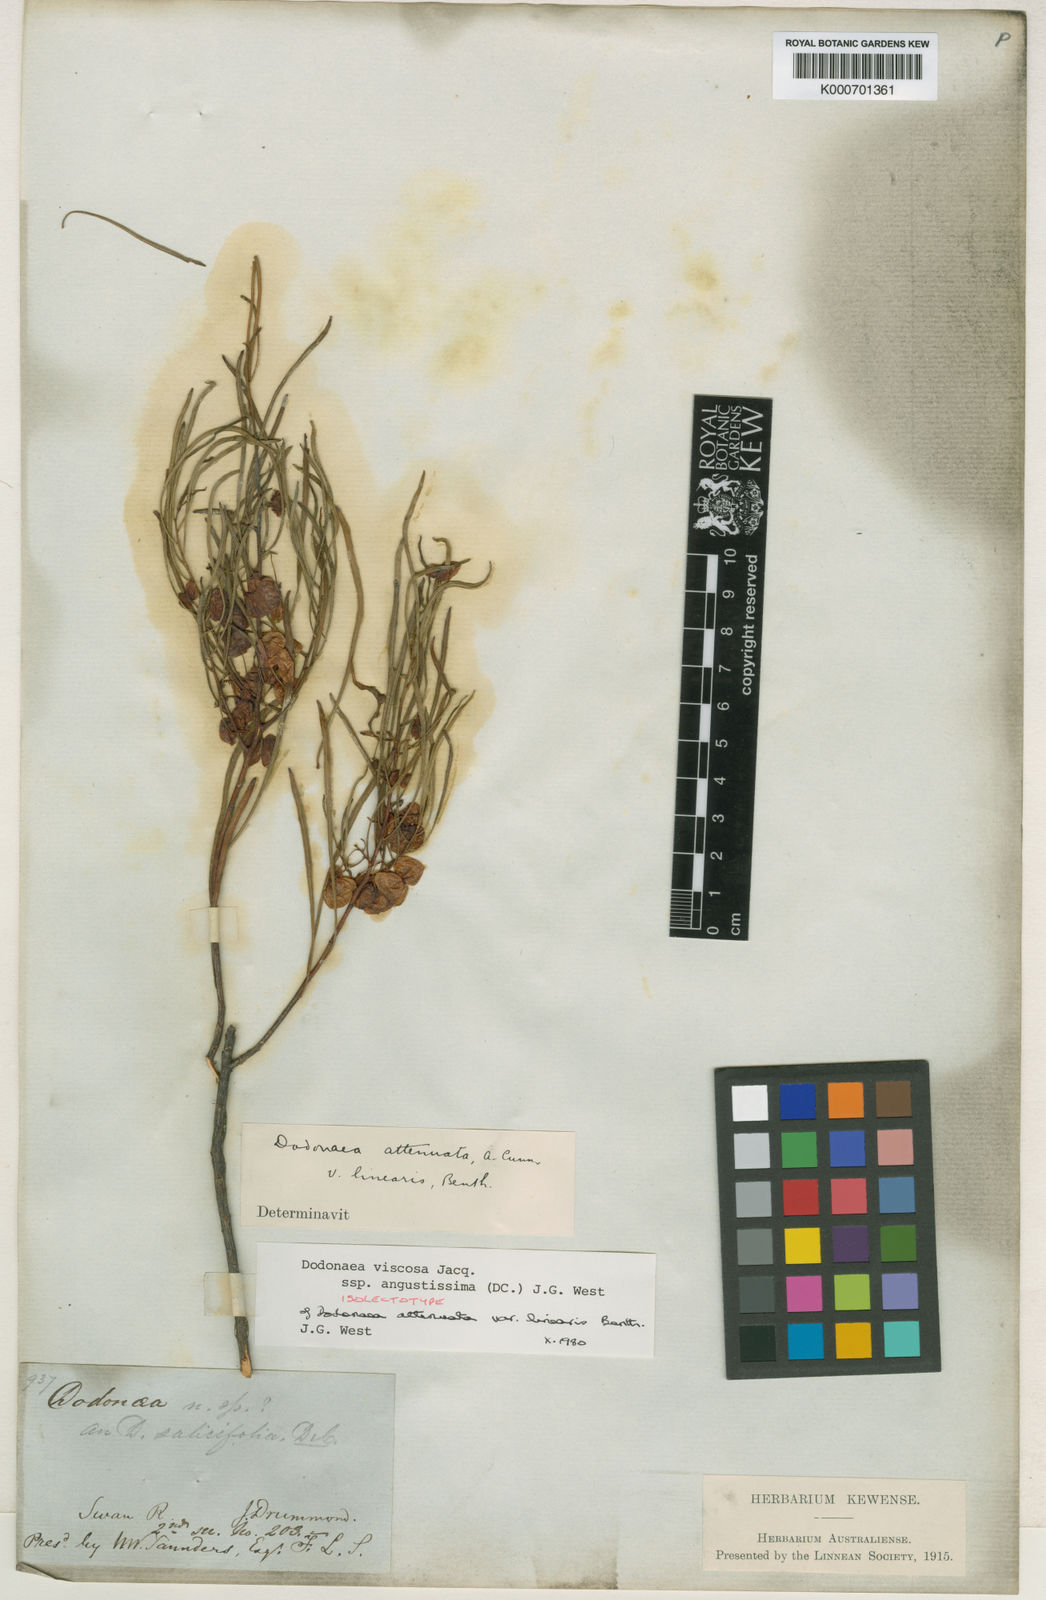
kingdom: Plantae
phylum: Tracheophyta
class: Magnoliopsida
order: Sapindales
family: Sapindaceae
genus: Dodonaea
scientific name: Dodonaea viscosa
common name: Hopbush
